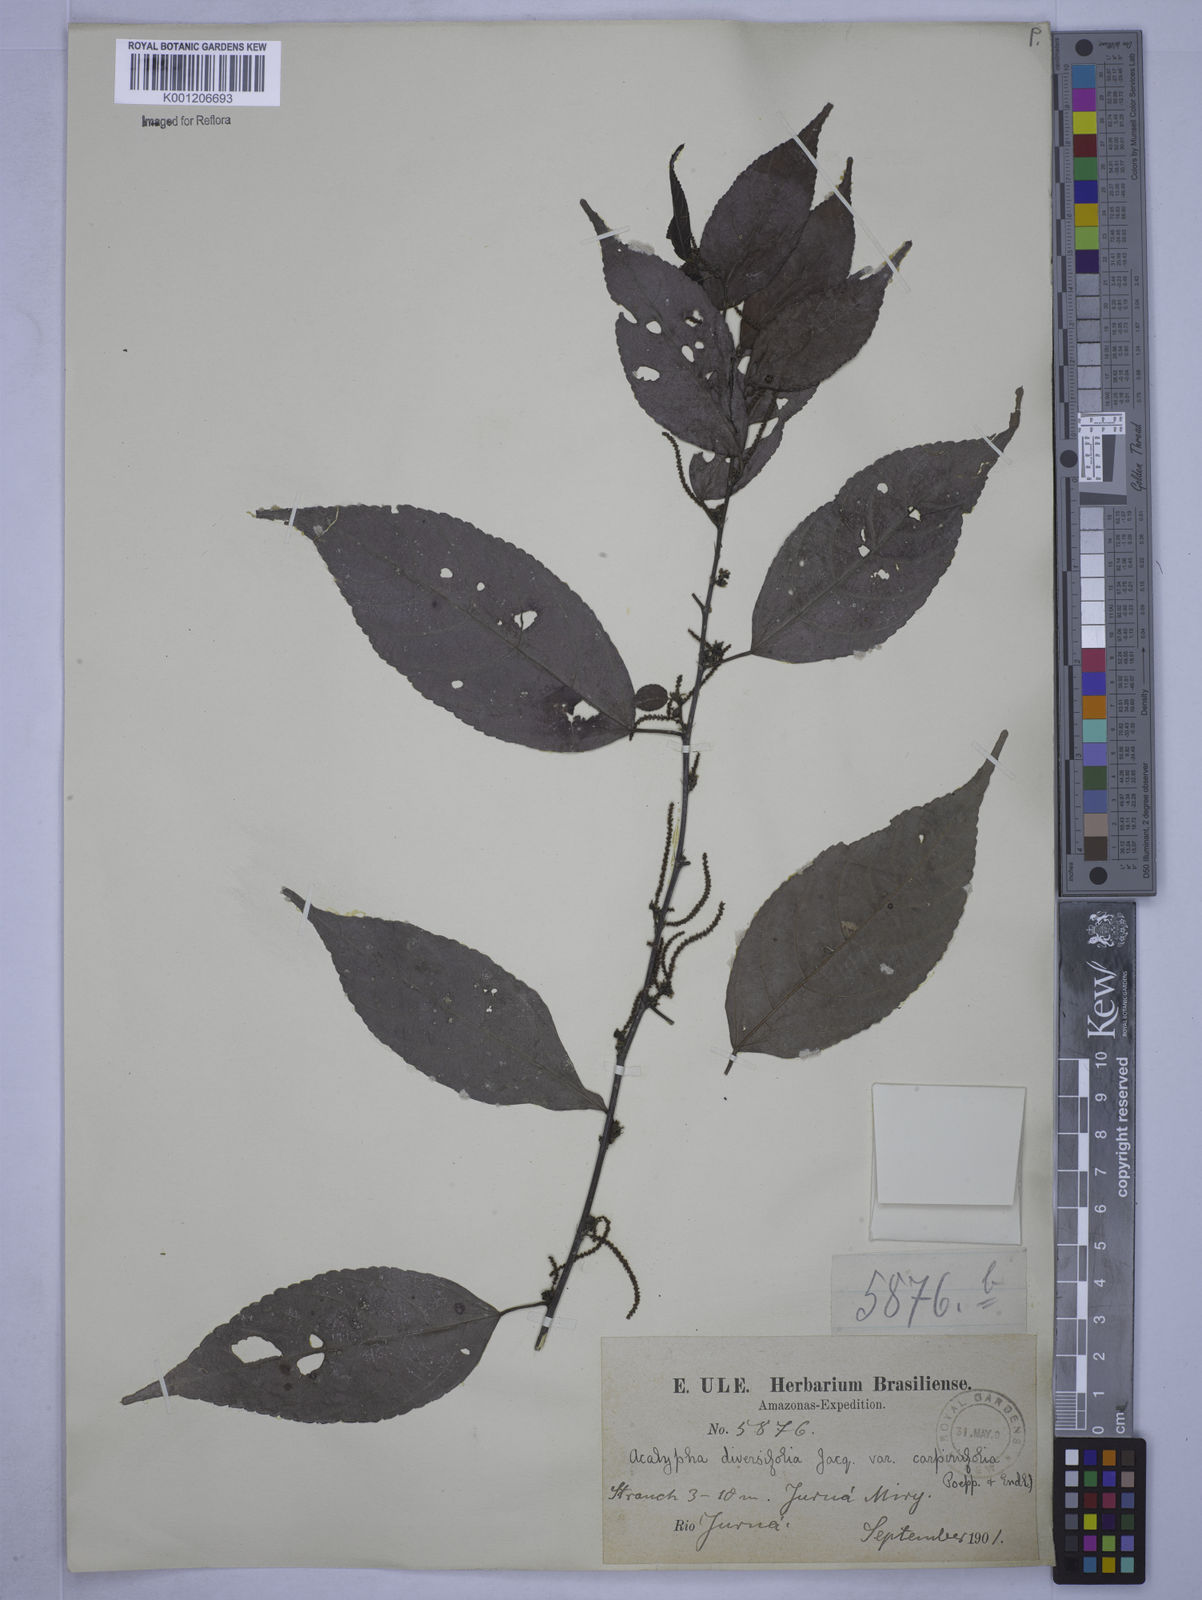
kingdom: Plantae
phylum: Tracheophyta
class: Magnoliopsida
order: Malpighiales
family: Euphorbiaceae
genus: Acalypha
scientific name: Acalypha diversifolia
